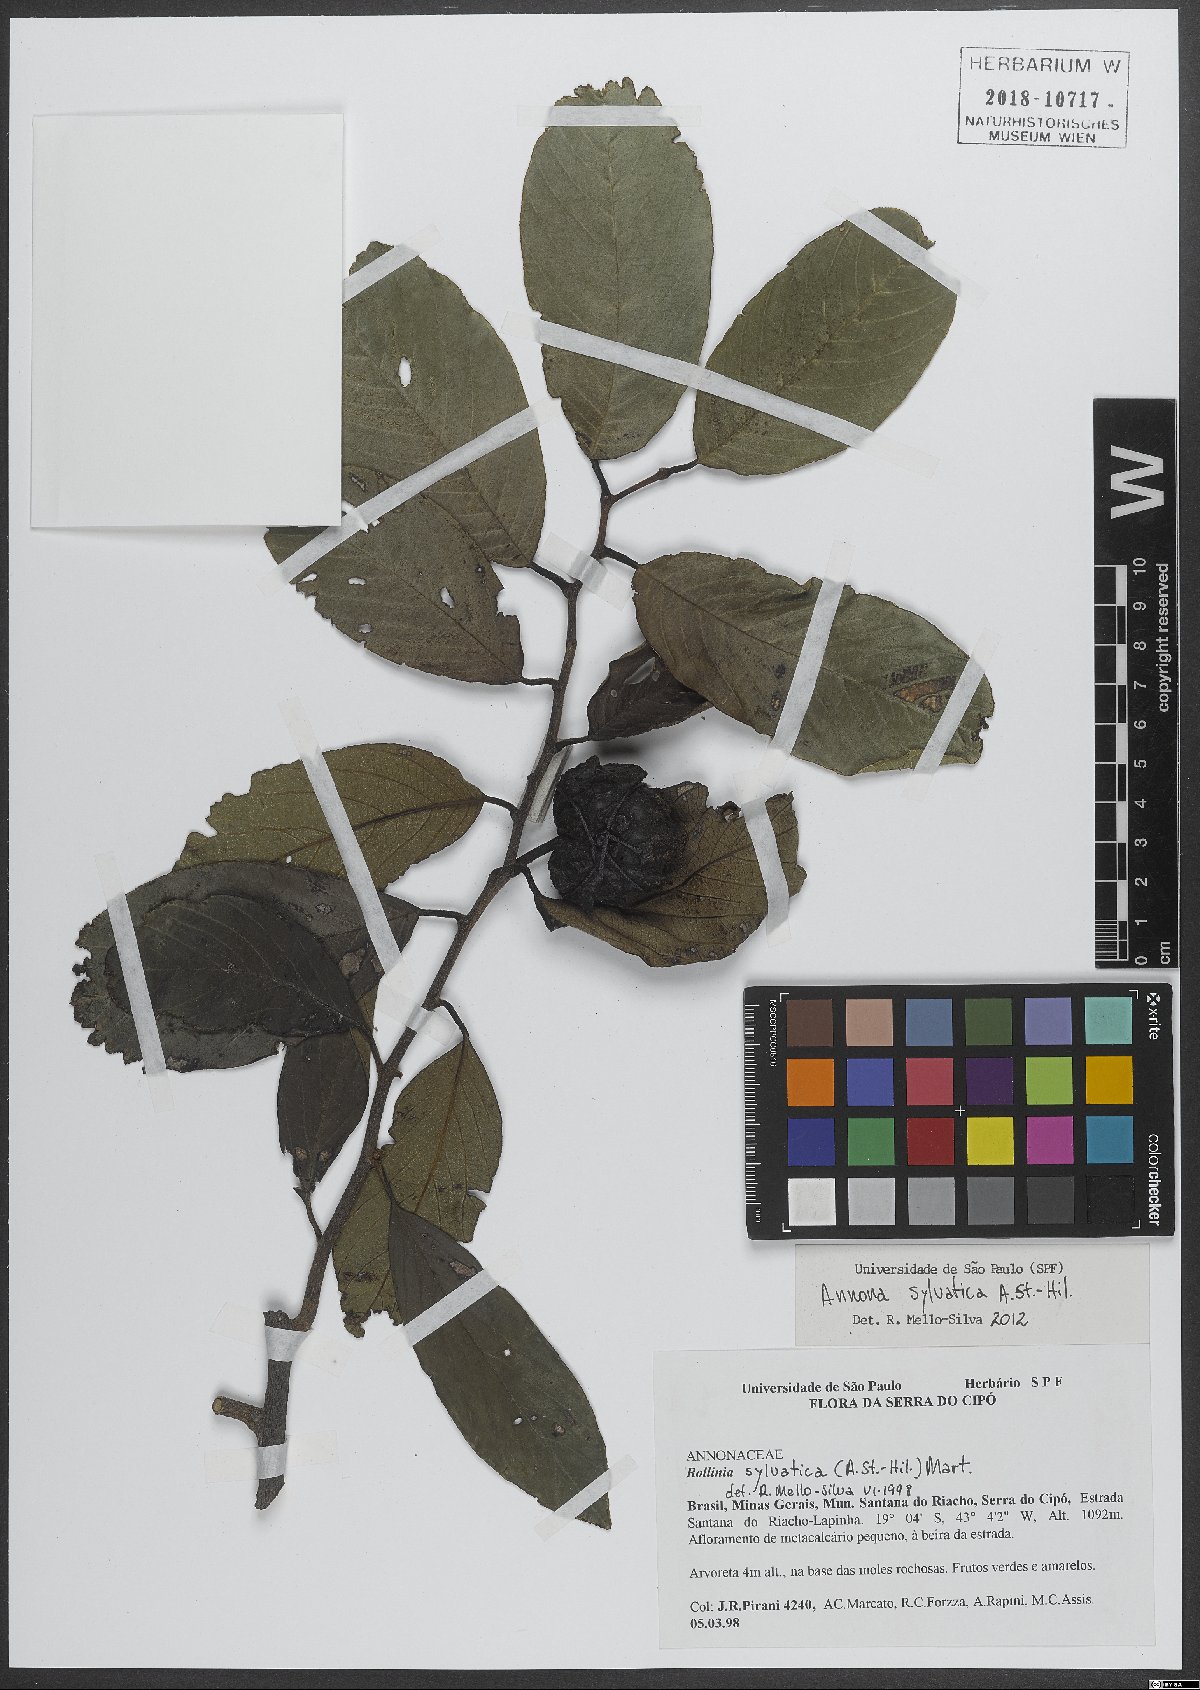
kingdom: Plantae
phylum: Tracheophyta
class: Magnoliopsida
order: Magnoliales
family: Annonaceae
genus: Annona
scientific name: Annona sylvatica
